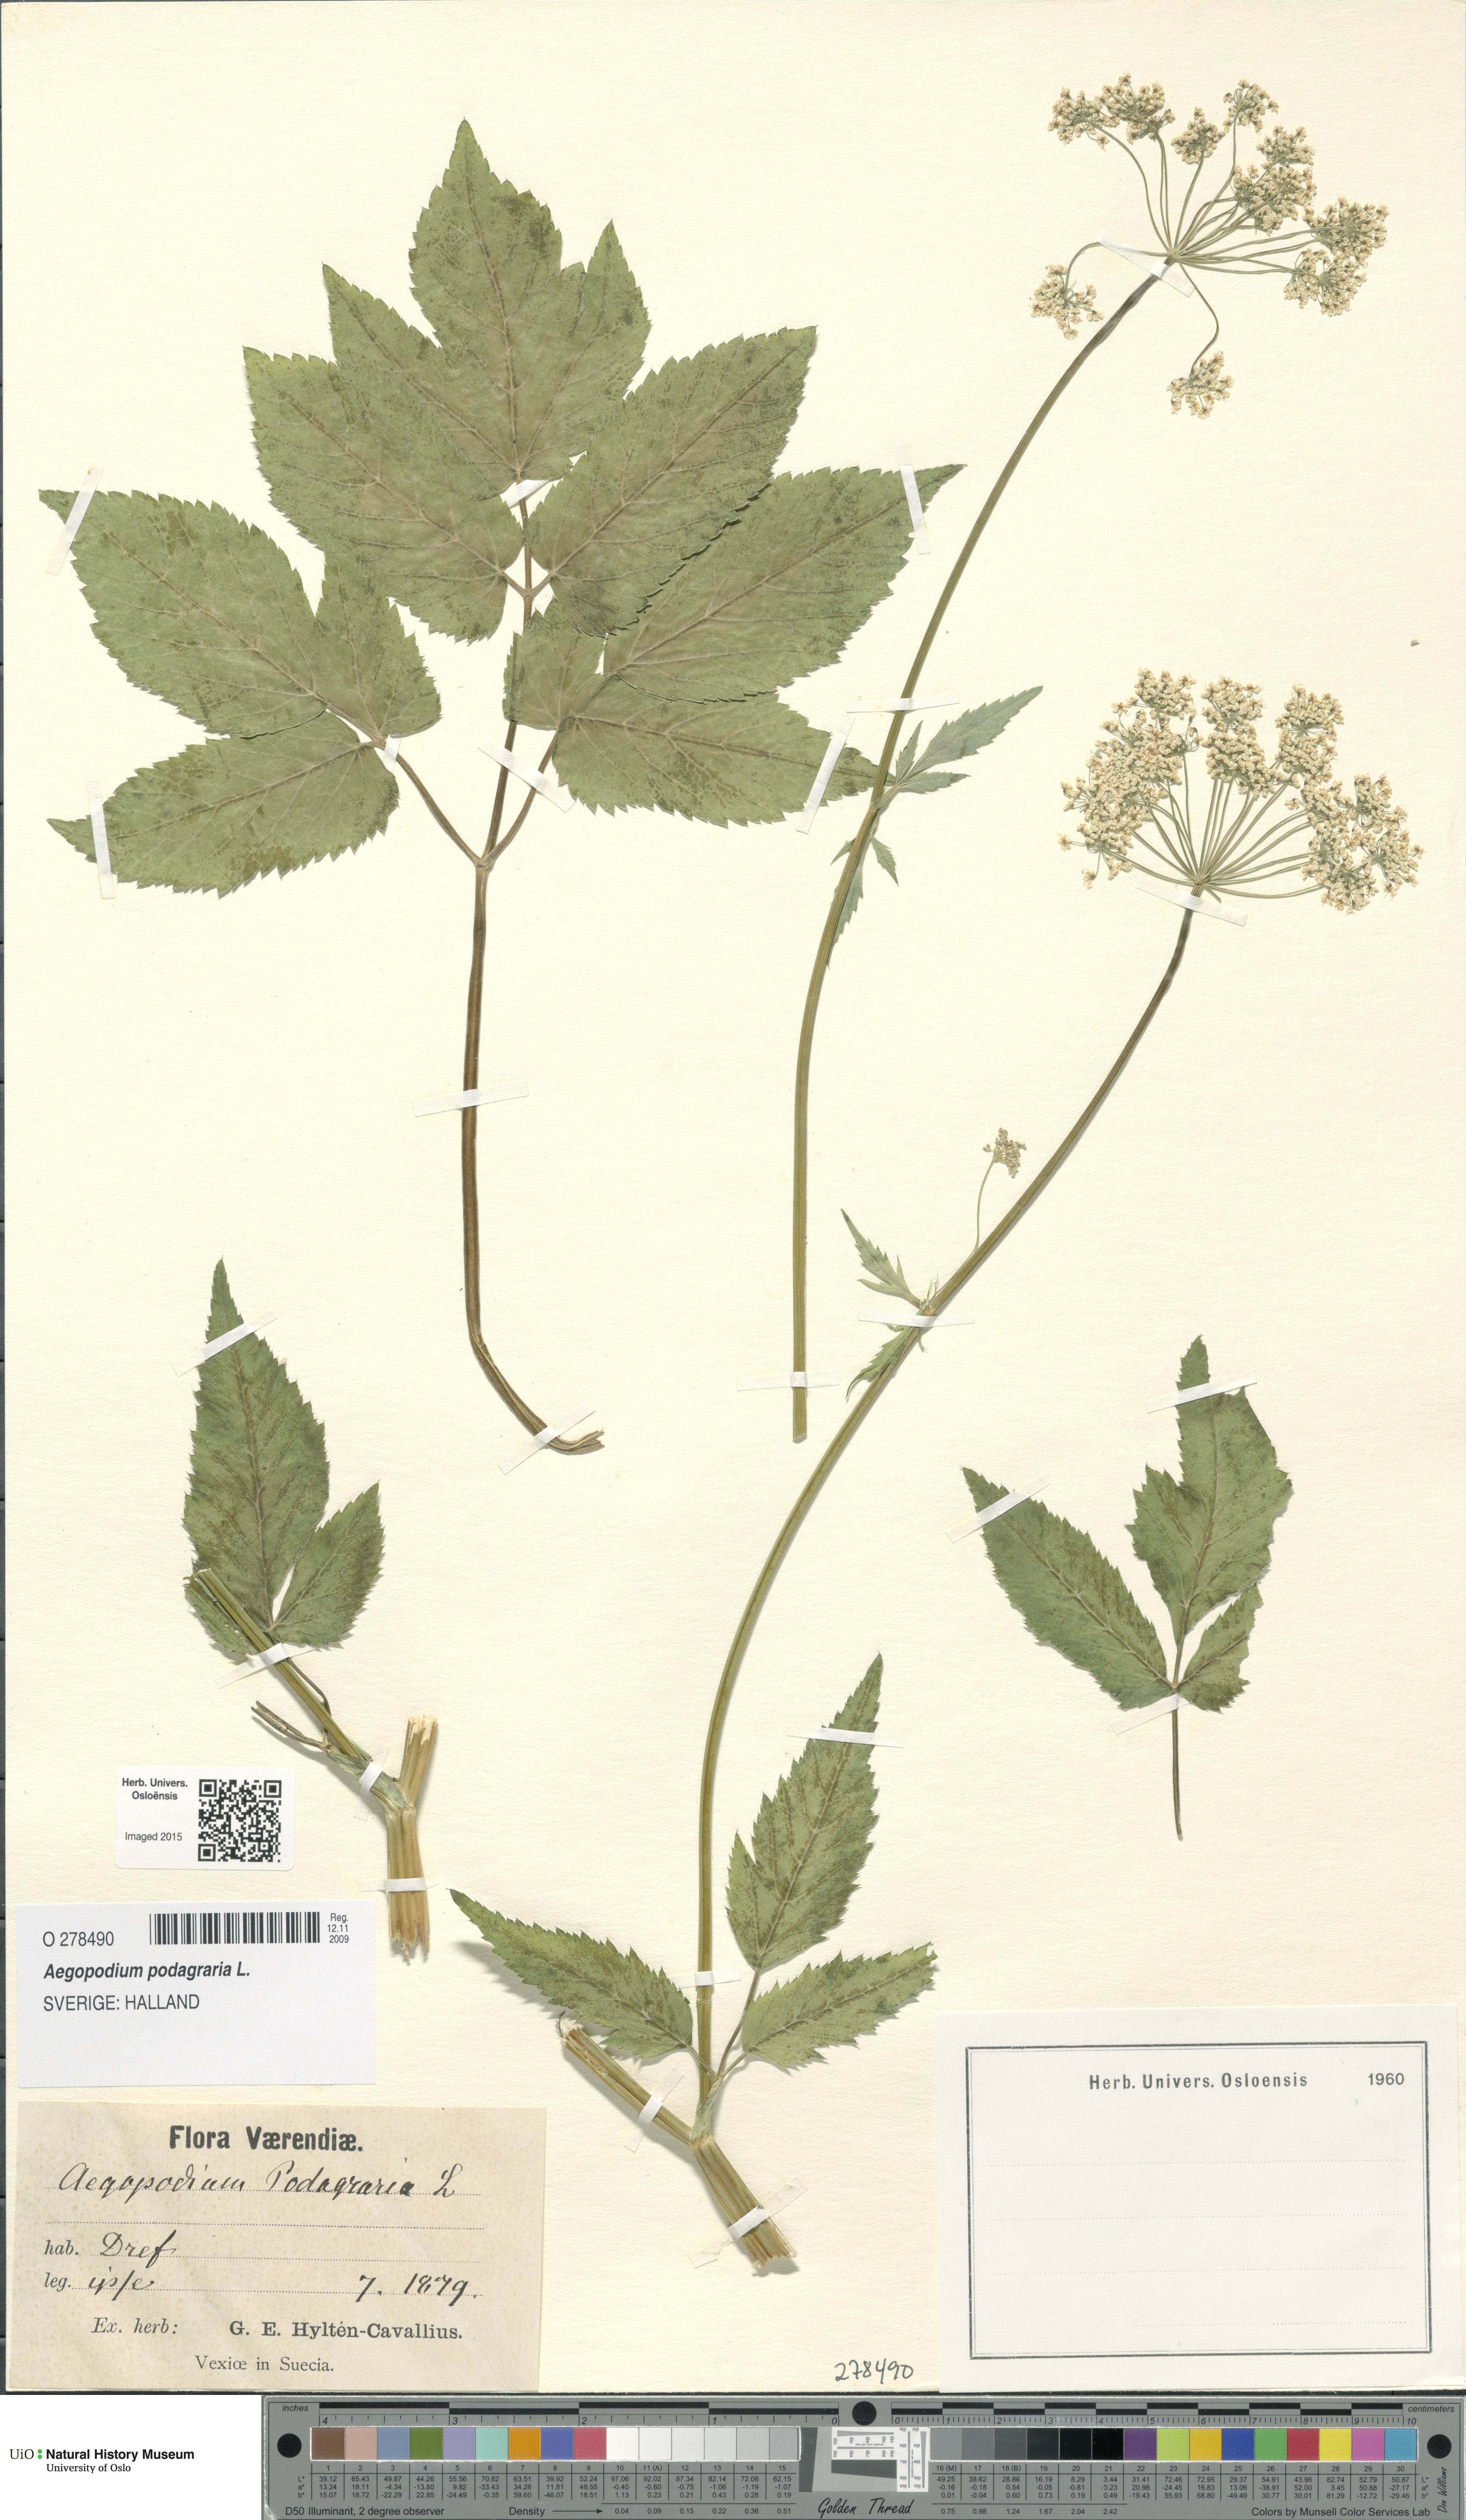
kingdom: Plantae
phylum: Tracheophyta
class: Magnoliopsida
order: Apiales
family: Apiaceae
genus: Aegopodium
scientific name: Aegopodium podagraria
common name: Ground-elder
